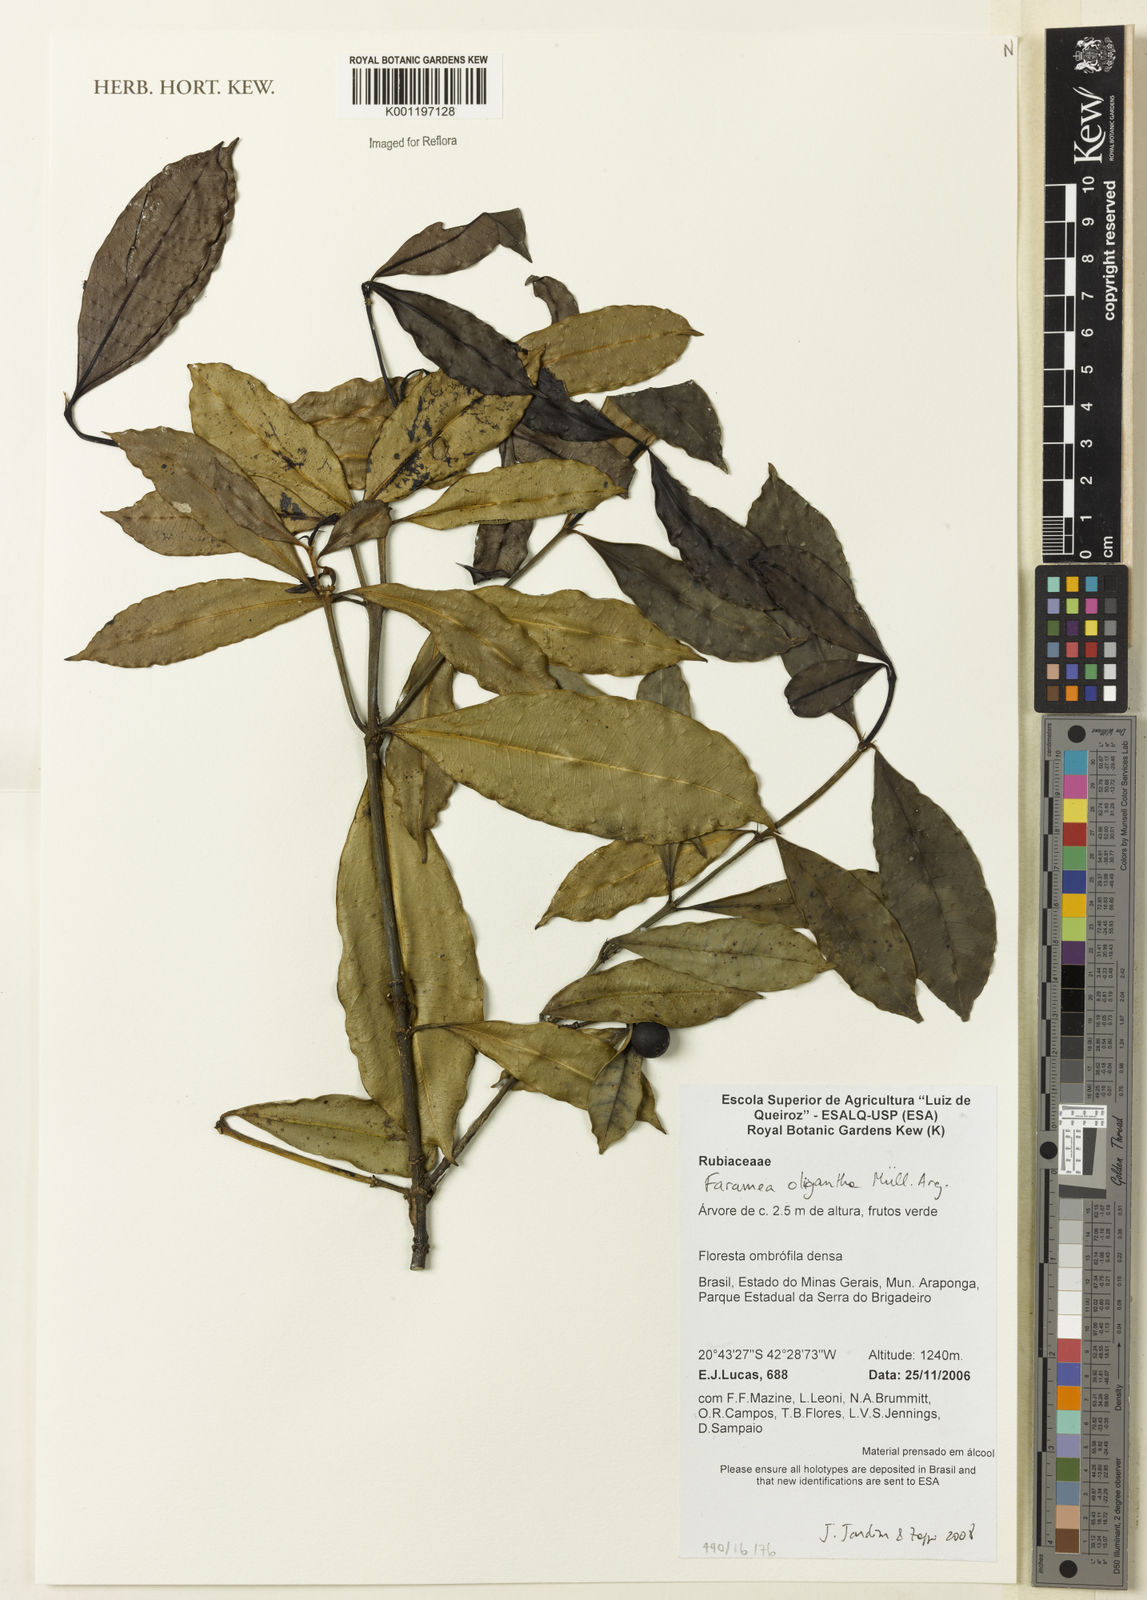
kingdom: Plantae
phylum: Tracheophyta
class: Magnoliopsida
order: Gentianales
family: Rubiaceae
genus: Faramea
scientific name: Faramea
